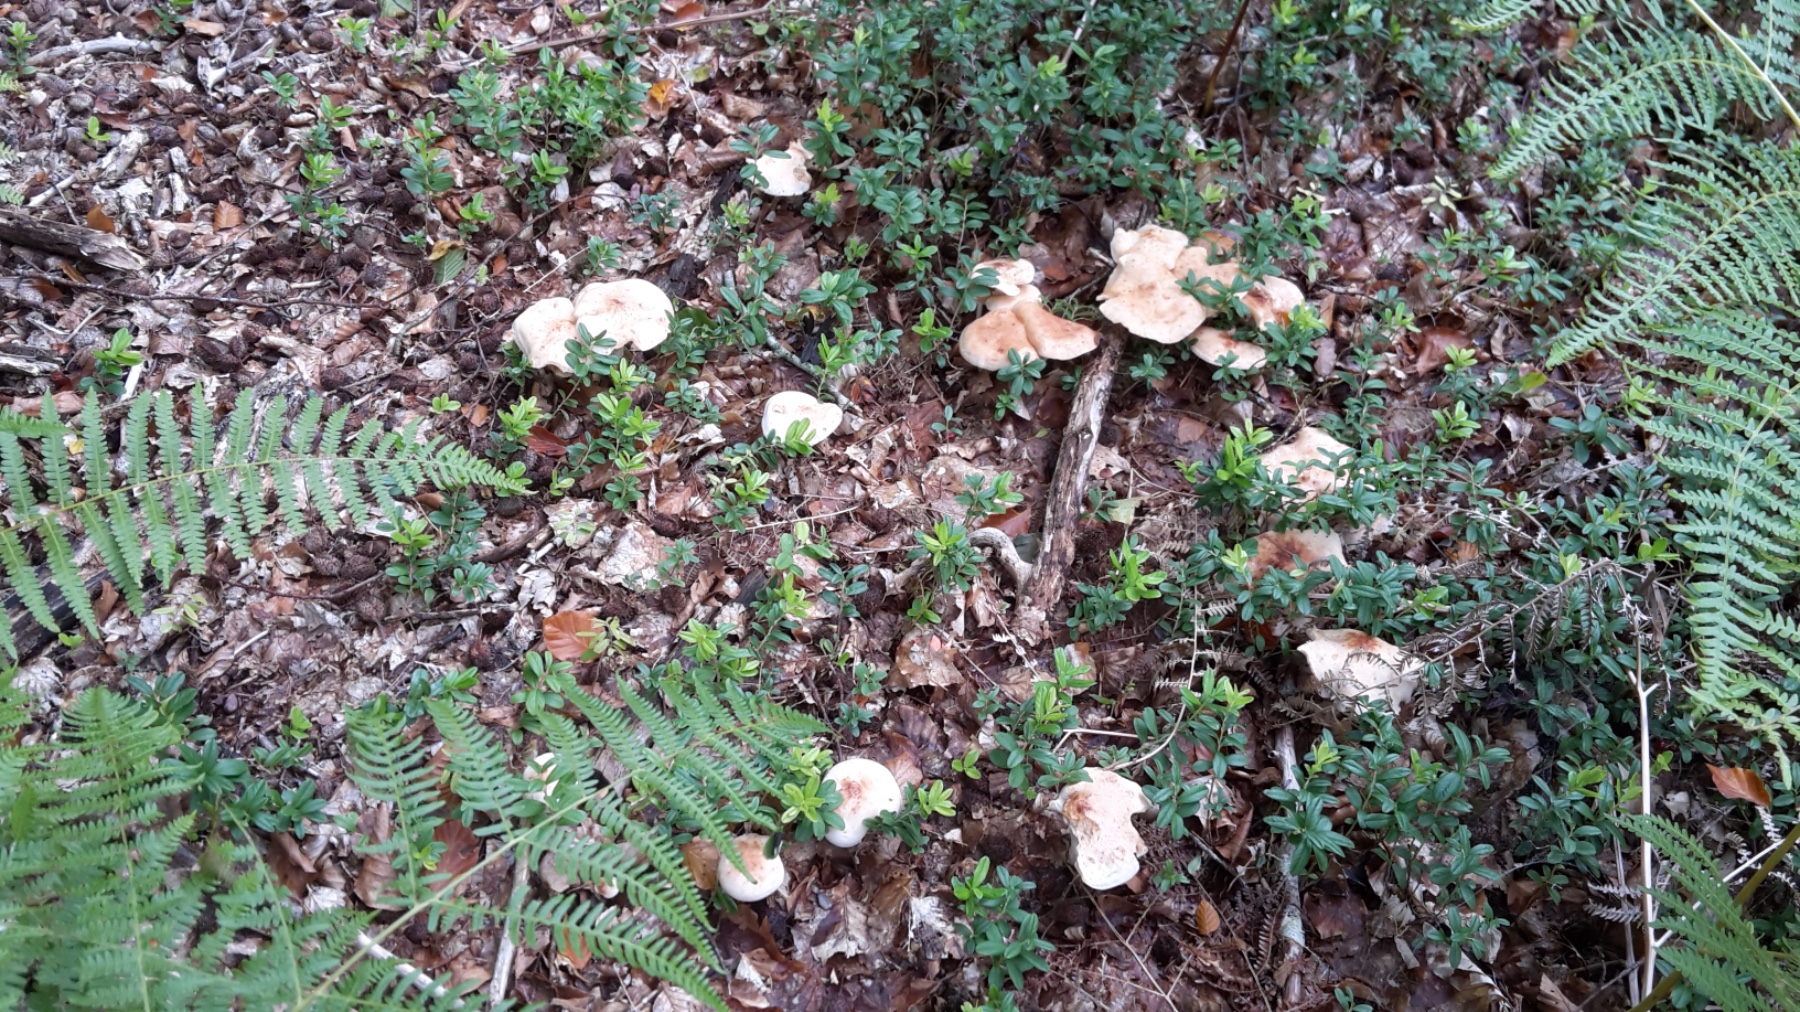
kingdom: Fungi
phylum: Basidiomycota
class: Agaricomycetes
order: Agaricales
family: Omphalotaceae
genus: Rhodocollybia
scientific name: Rhodocollybia maculata
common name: plettet fladhat
